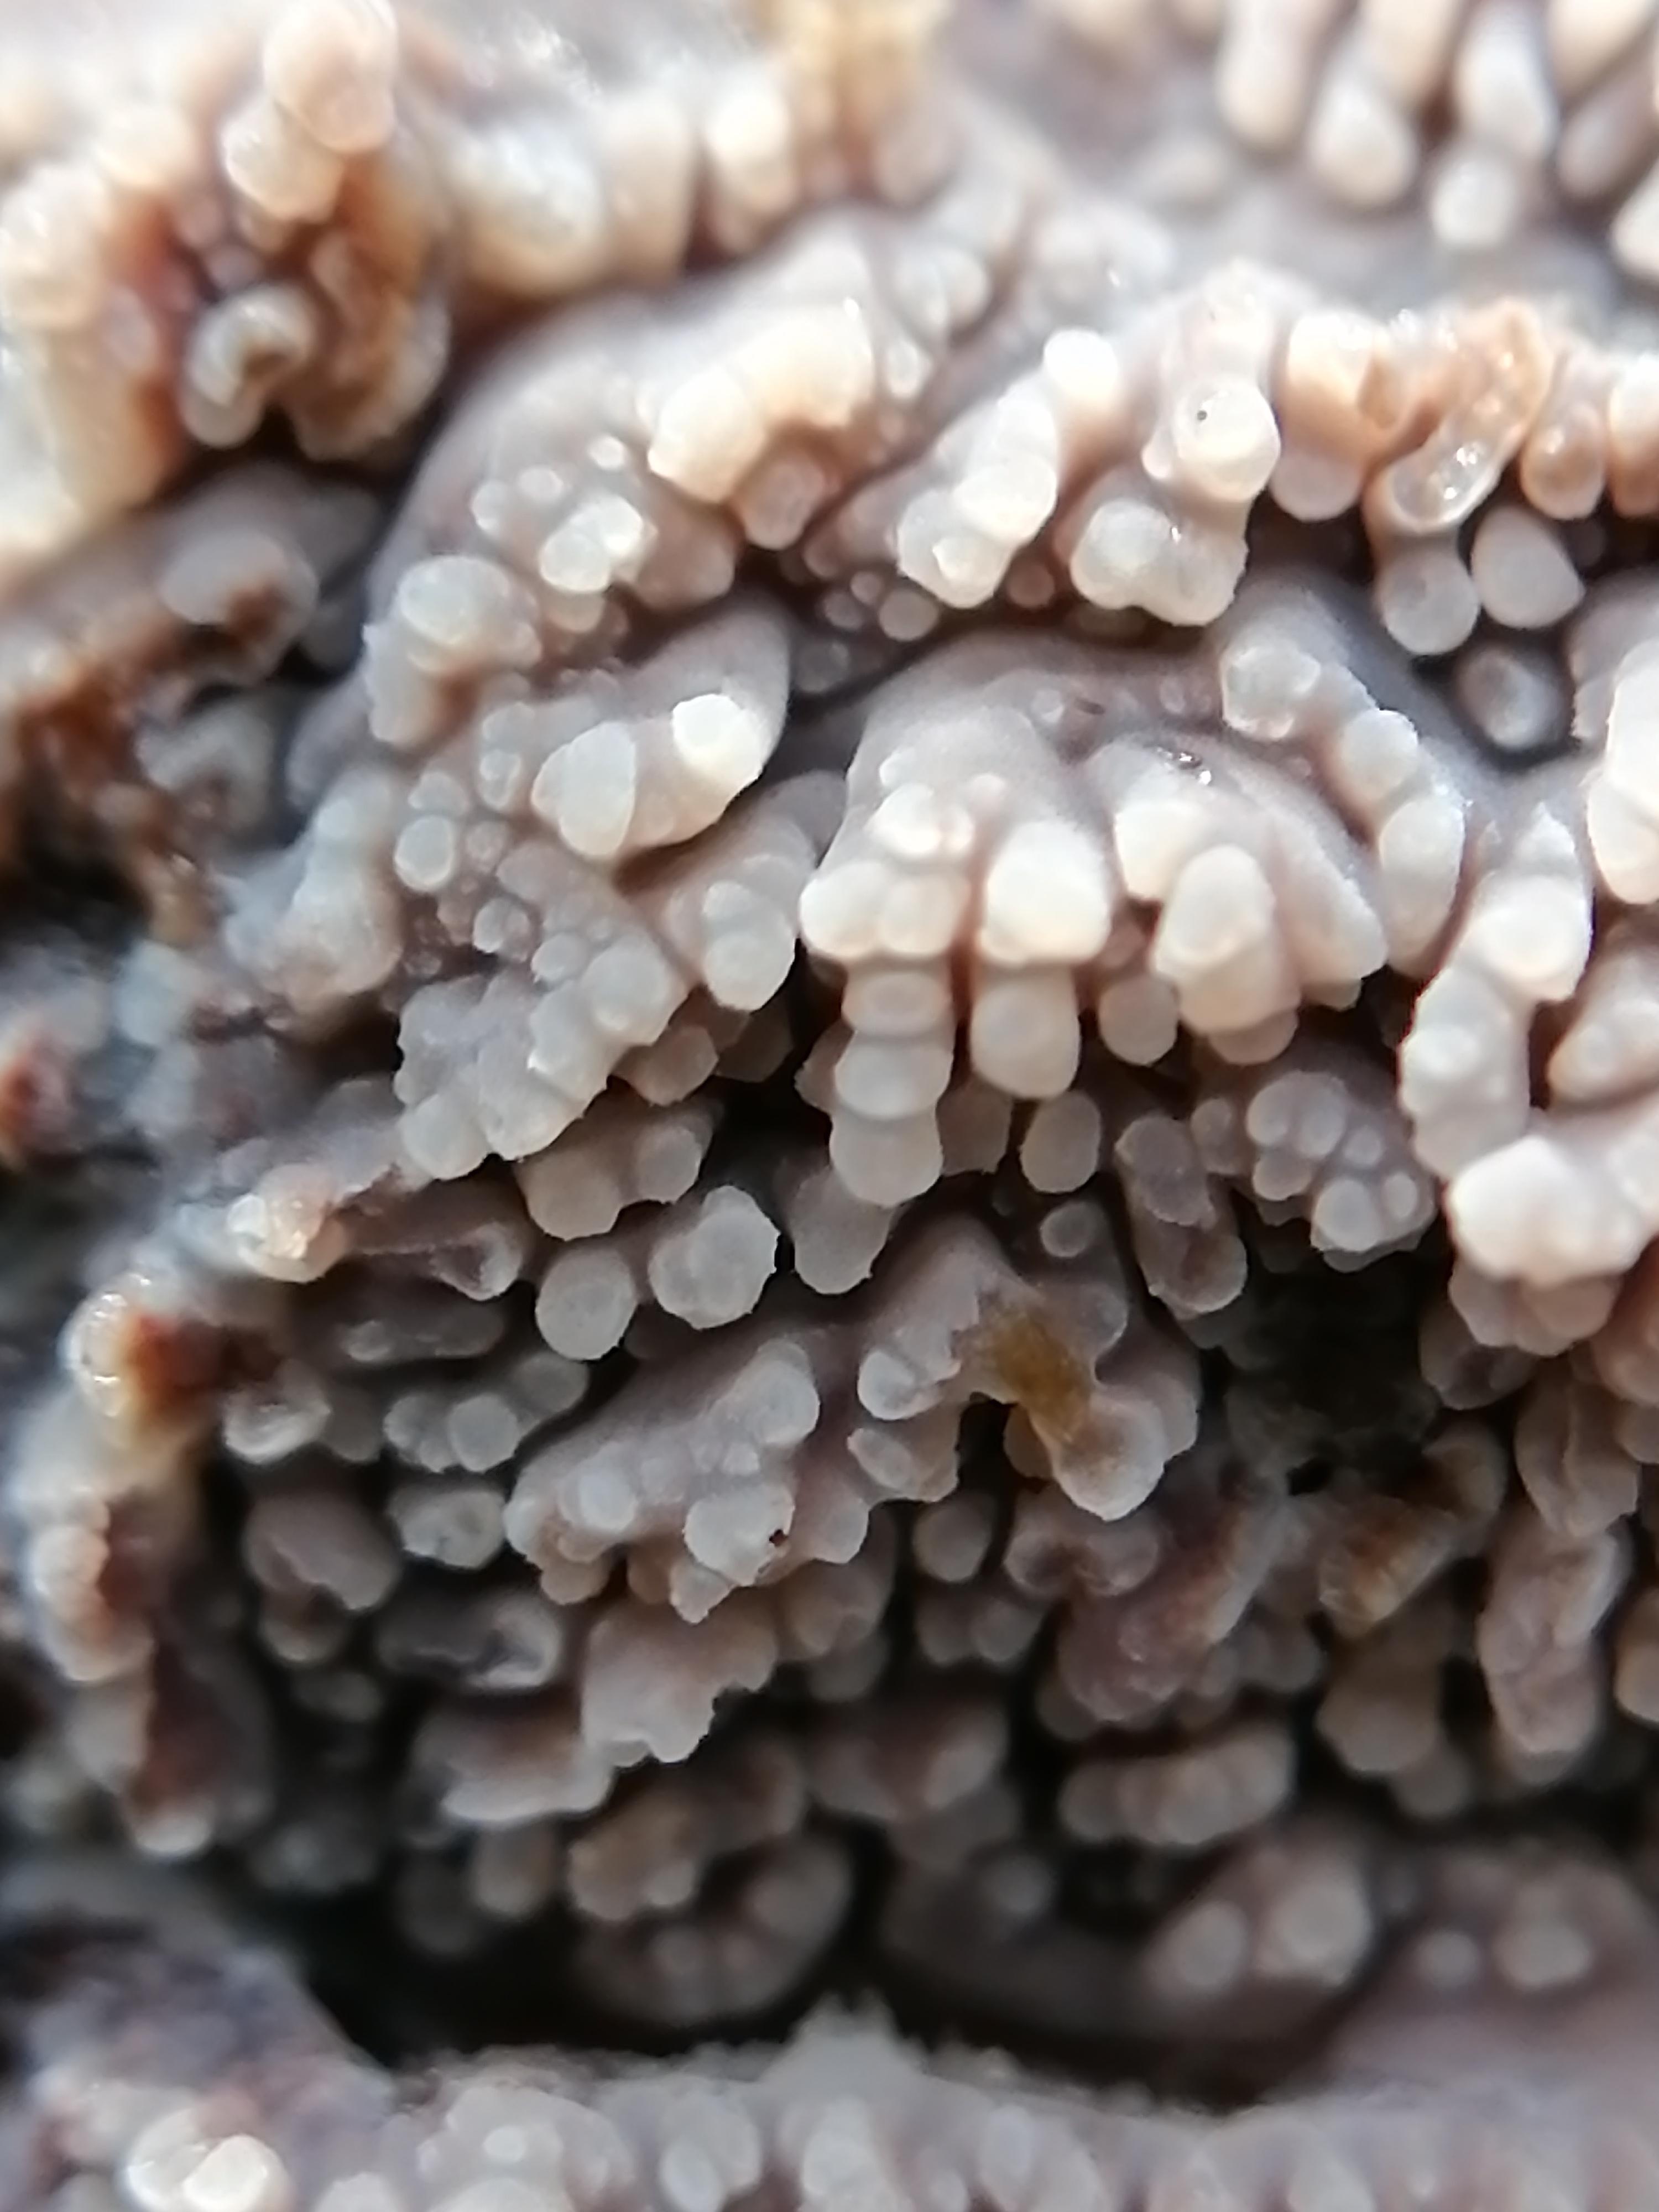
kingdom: Fungi
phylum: Basidiomycota
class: Agaricomycetes
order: Polyporales
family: Meruliaceae
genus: Phlebia
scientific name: Phlebia radiata
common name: stråle-åresvamp
